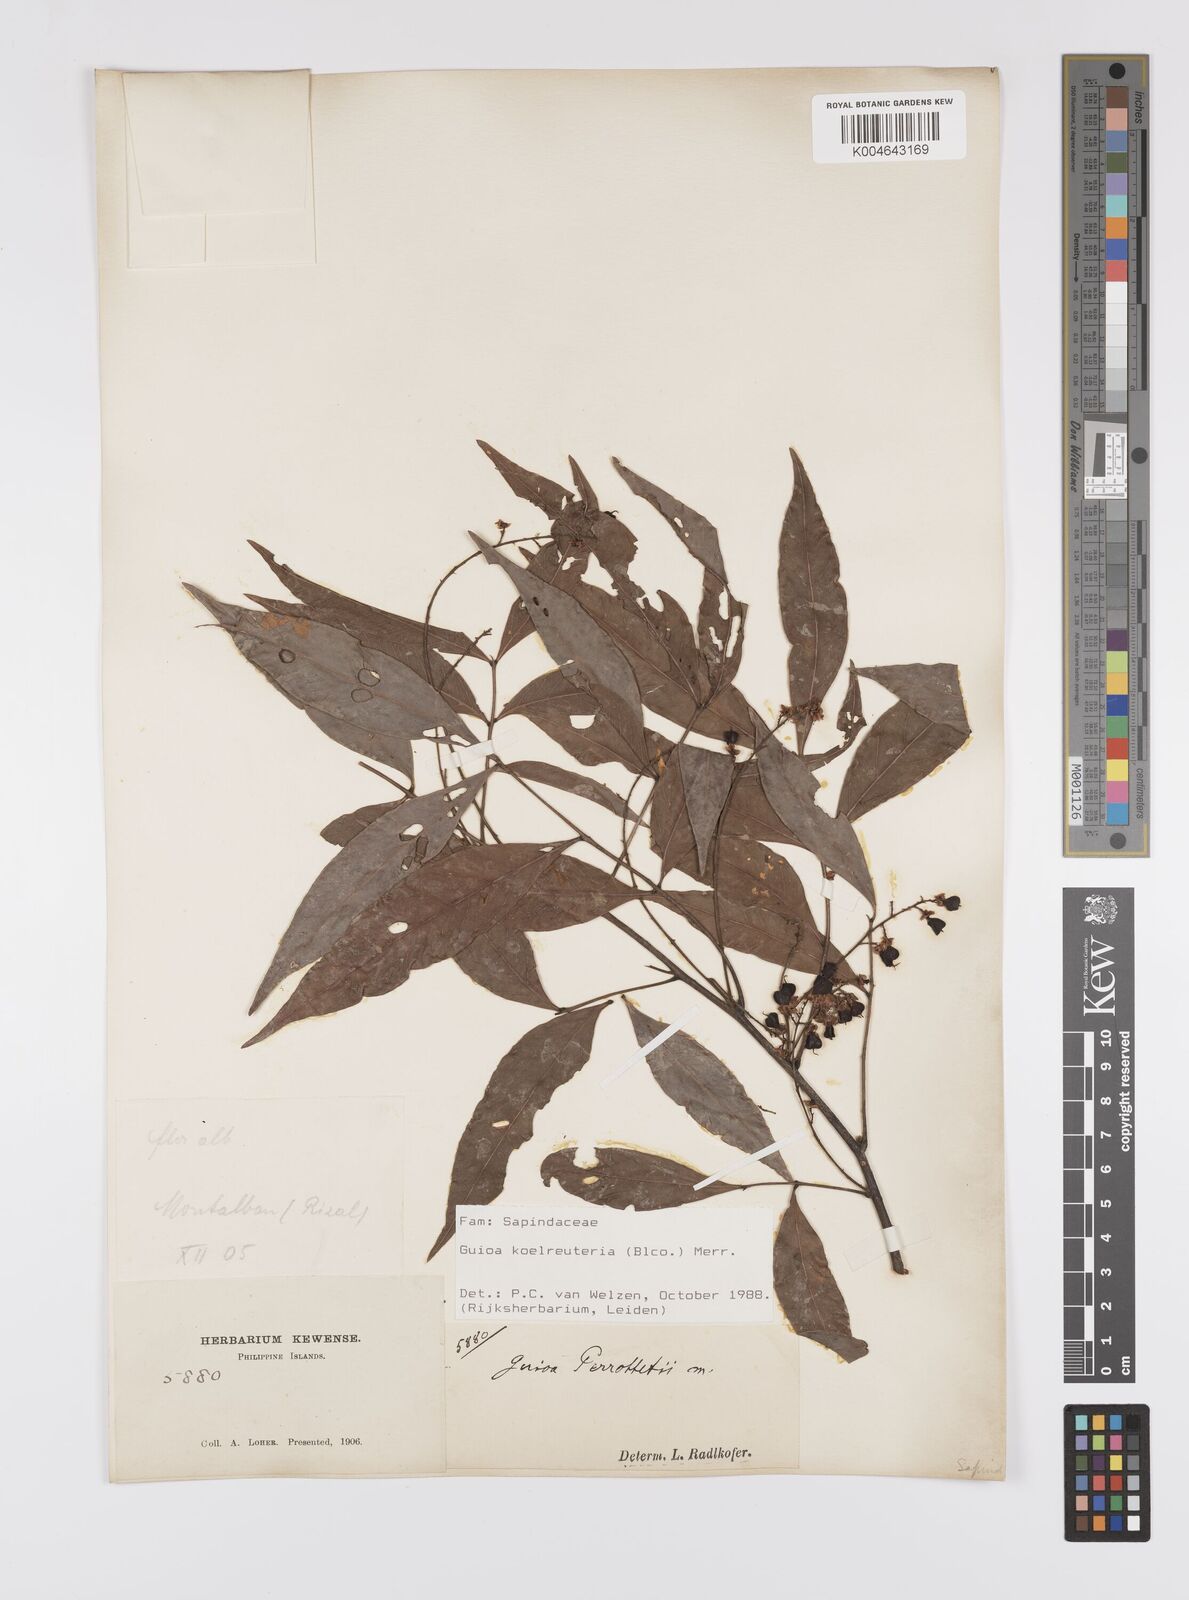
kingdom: Plantae
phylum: Tracheophyta
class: Magnoliopsida
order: Sapindales
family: Sapindaceae
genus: Guioa
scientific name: Guioa koelreuteria
